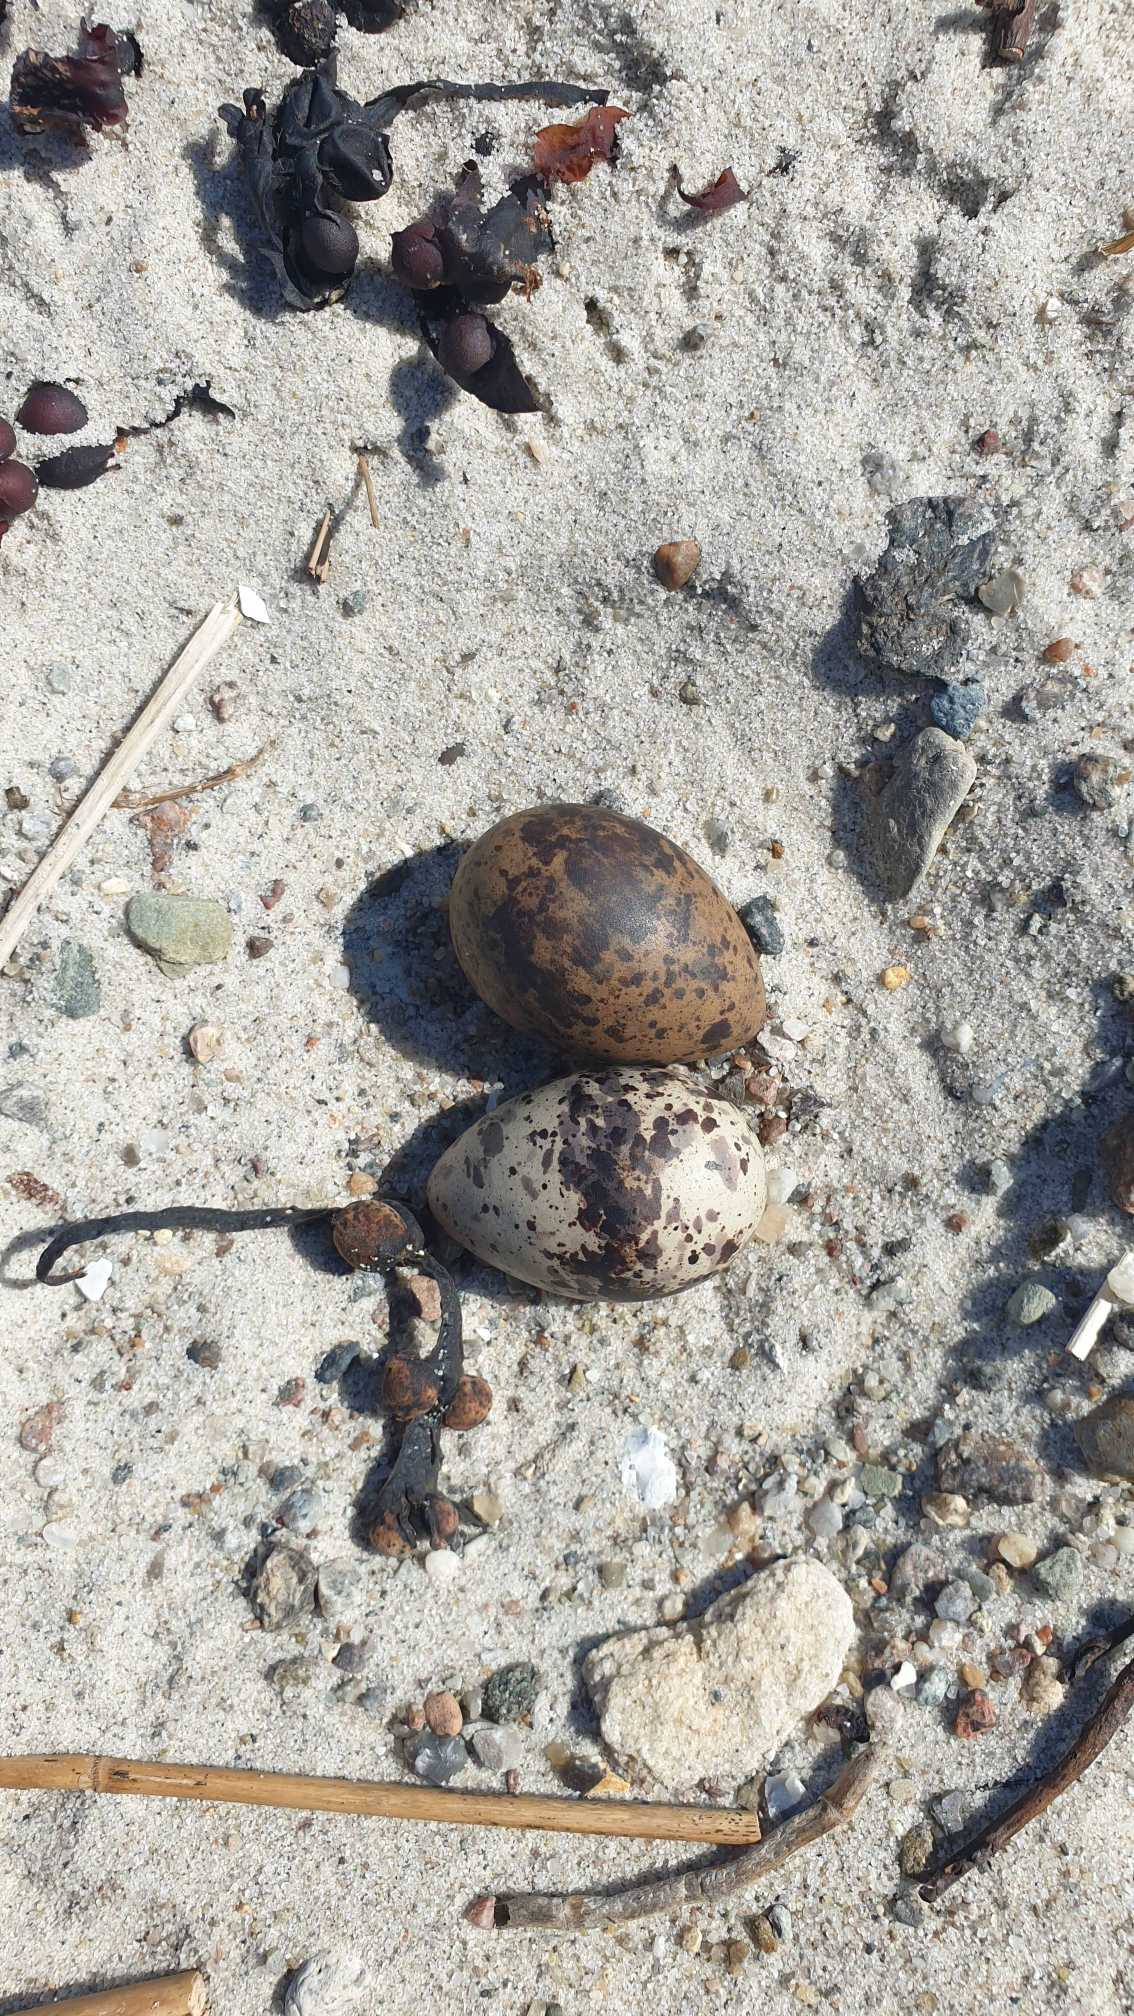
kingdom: Animalia
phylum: Chordata
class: Aves
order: Charadriiformes
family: Recurvirostridae
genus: Recurvirostra
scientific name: Recurvirostra avosetta
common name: Klyde
